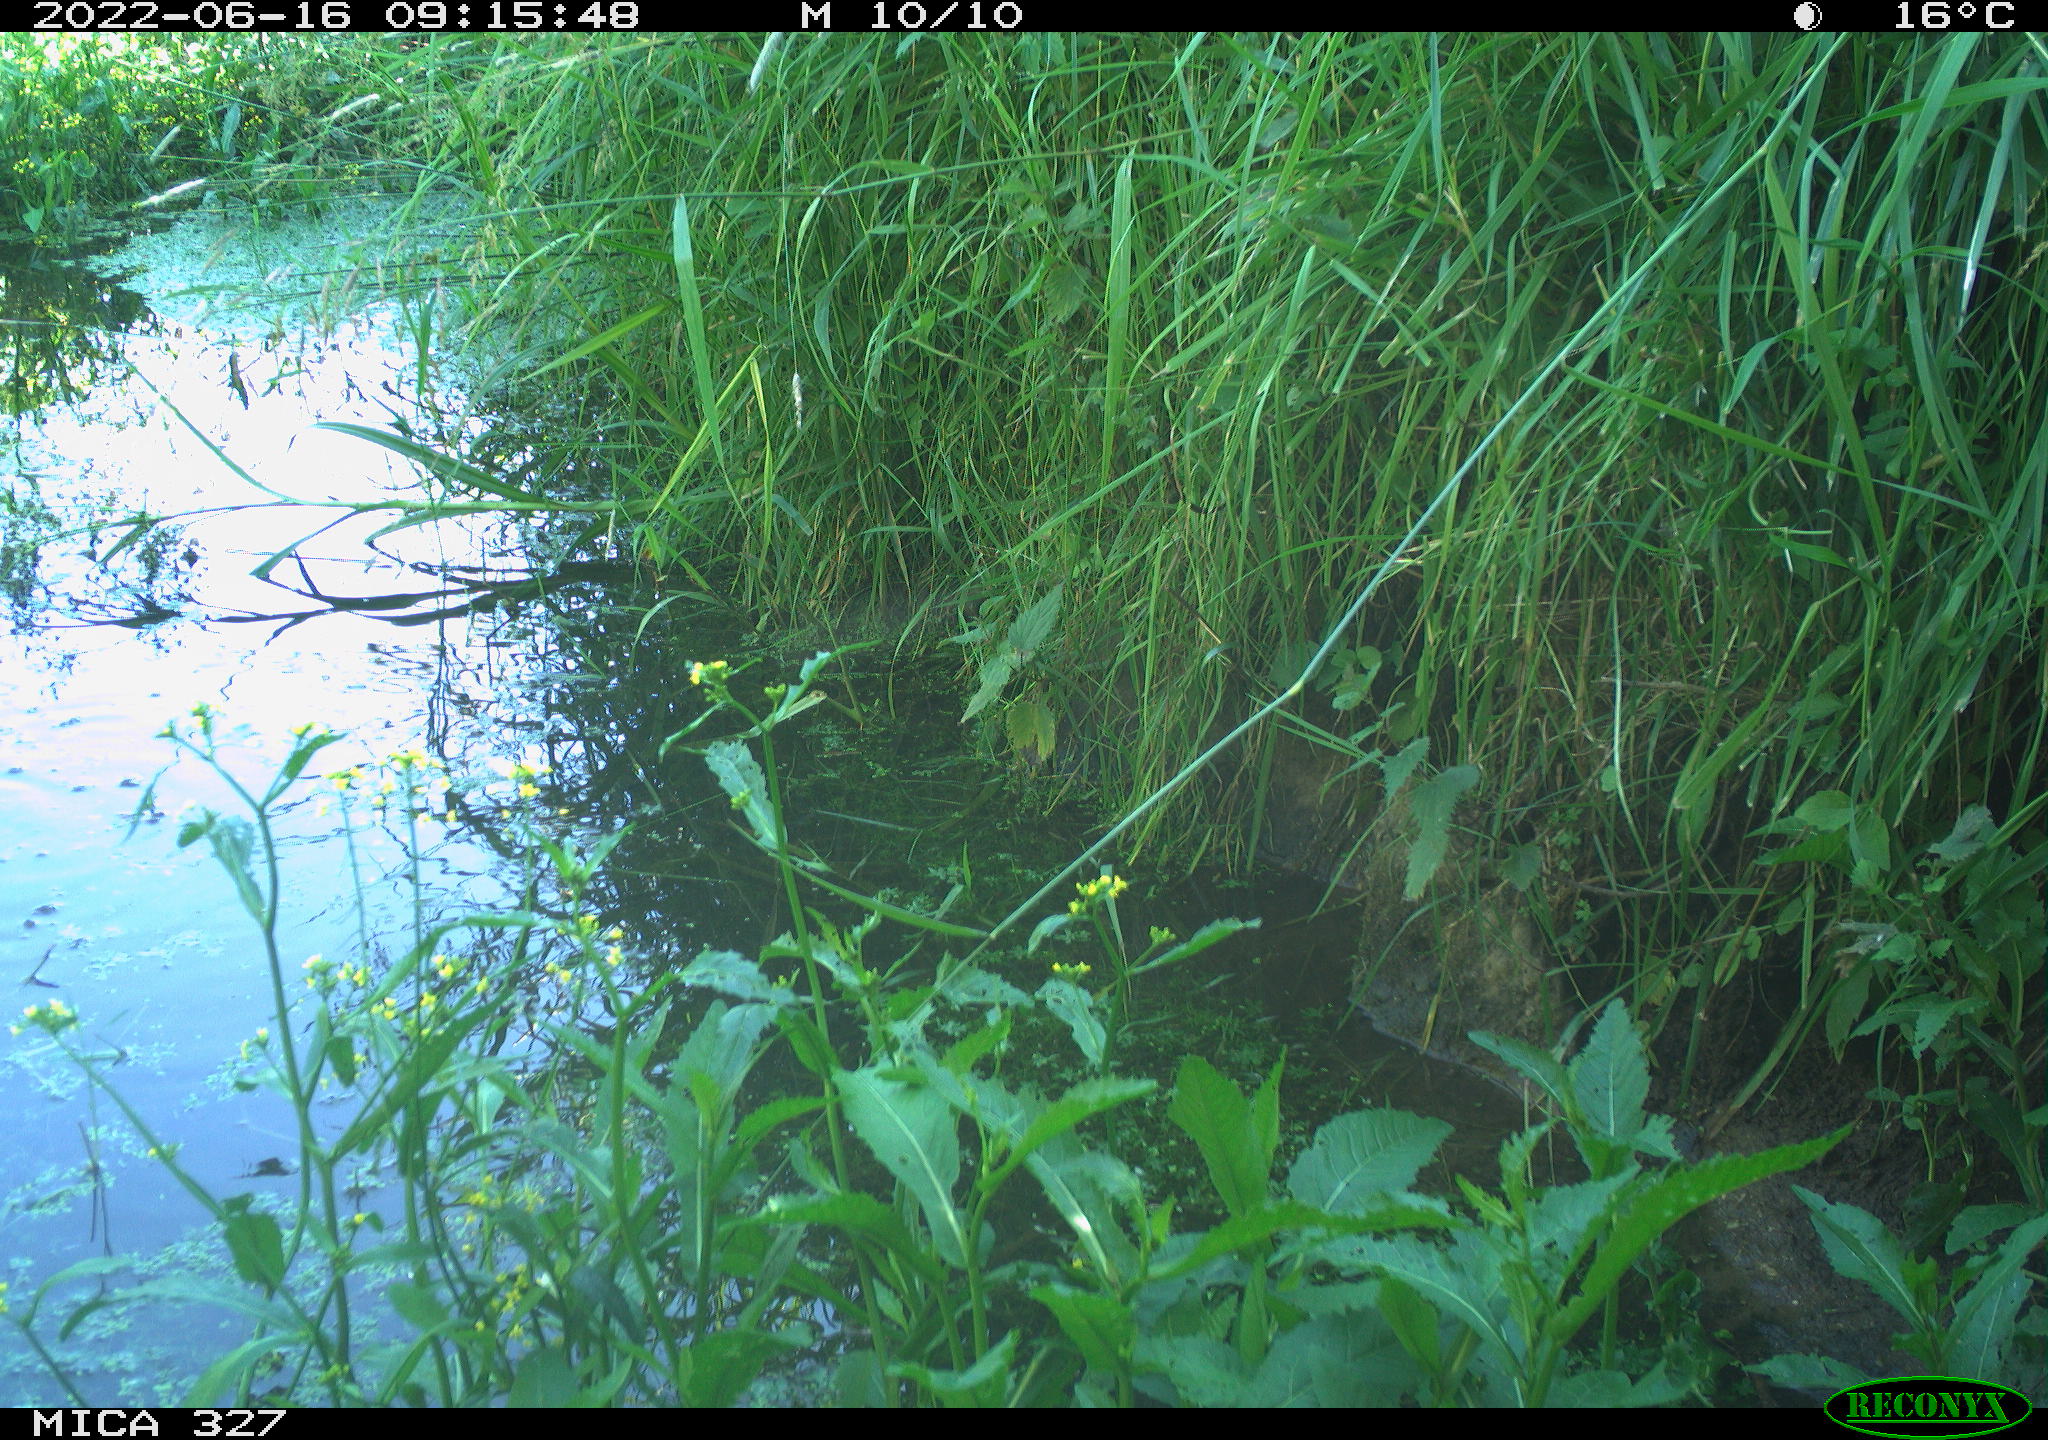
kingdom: Animalia
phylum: Chordata
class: Aves
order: Gruiformes
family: Rallidae
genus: Gallinula
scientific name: Gallinula chloropus
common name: Common moorhen
